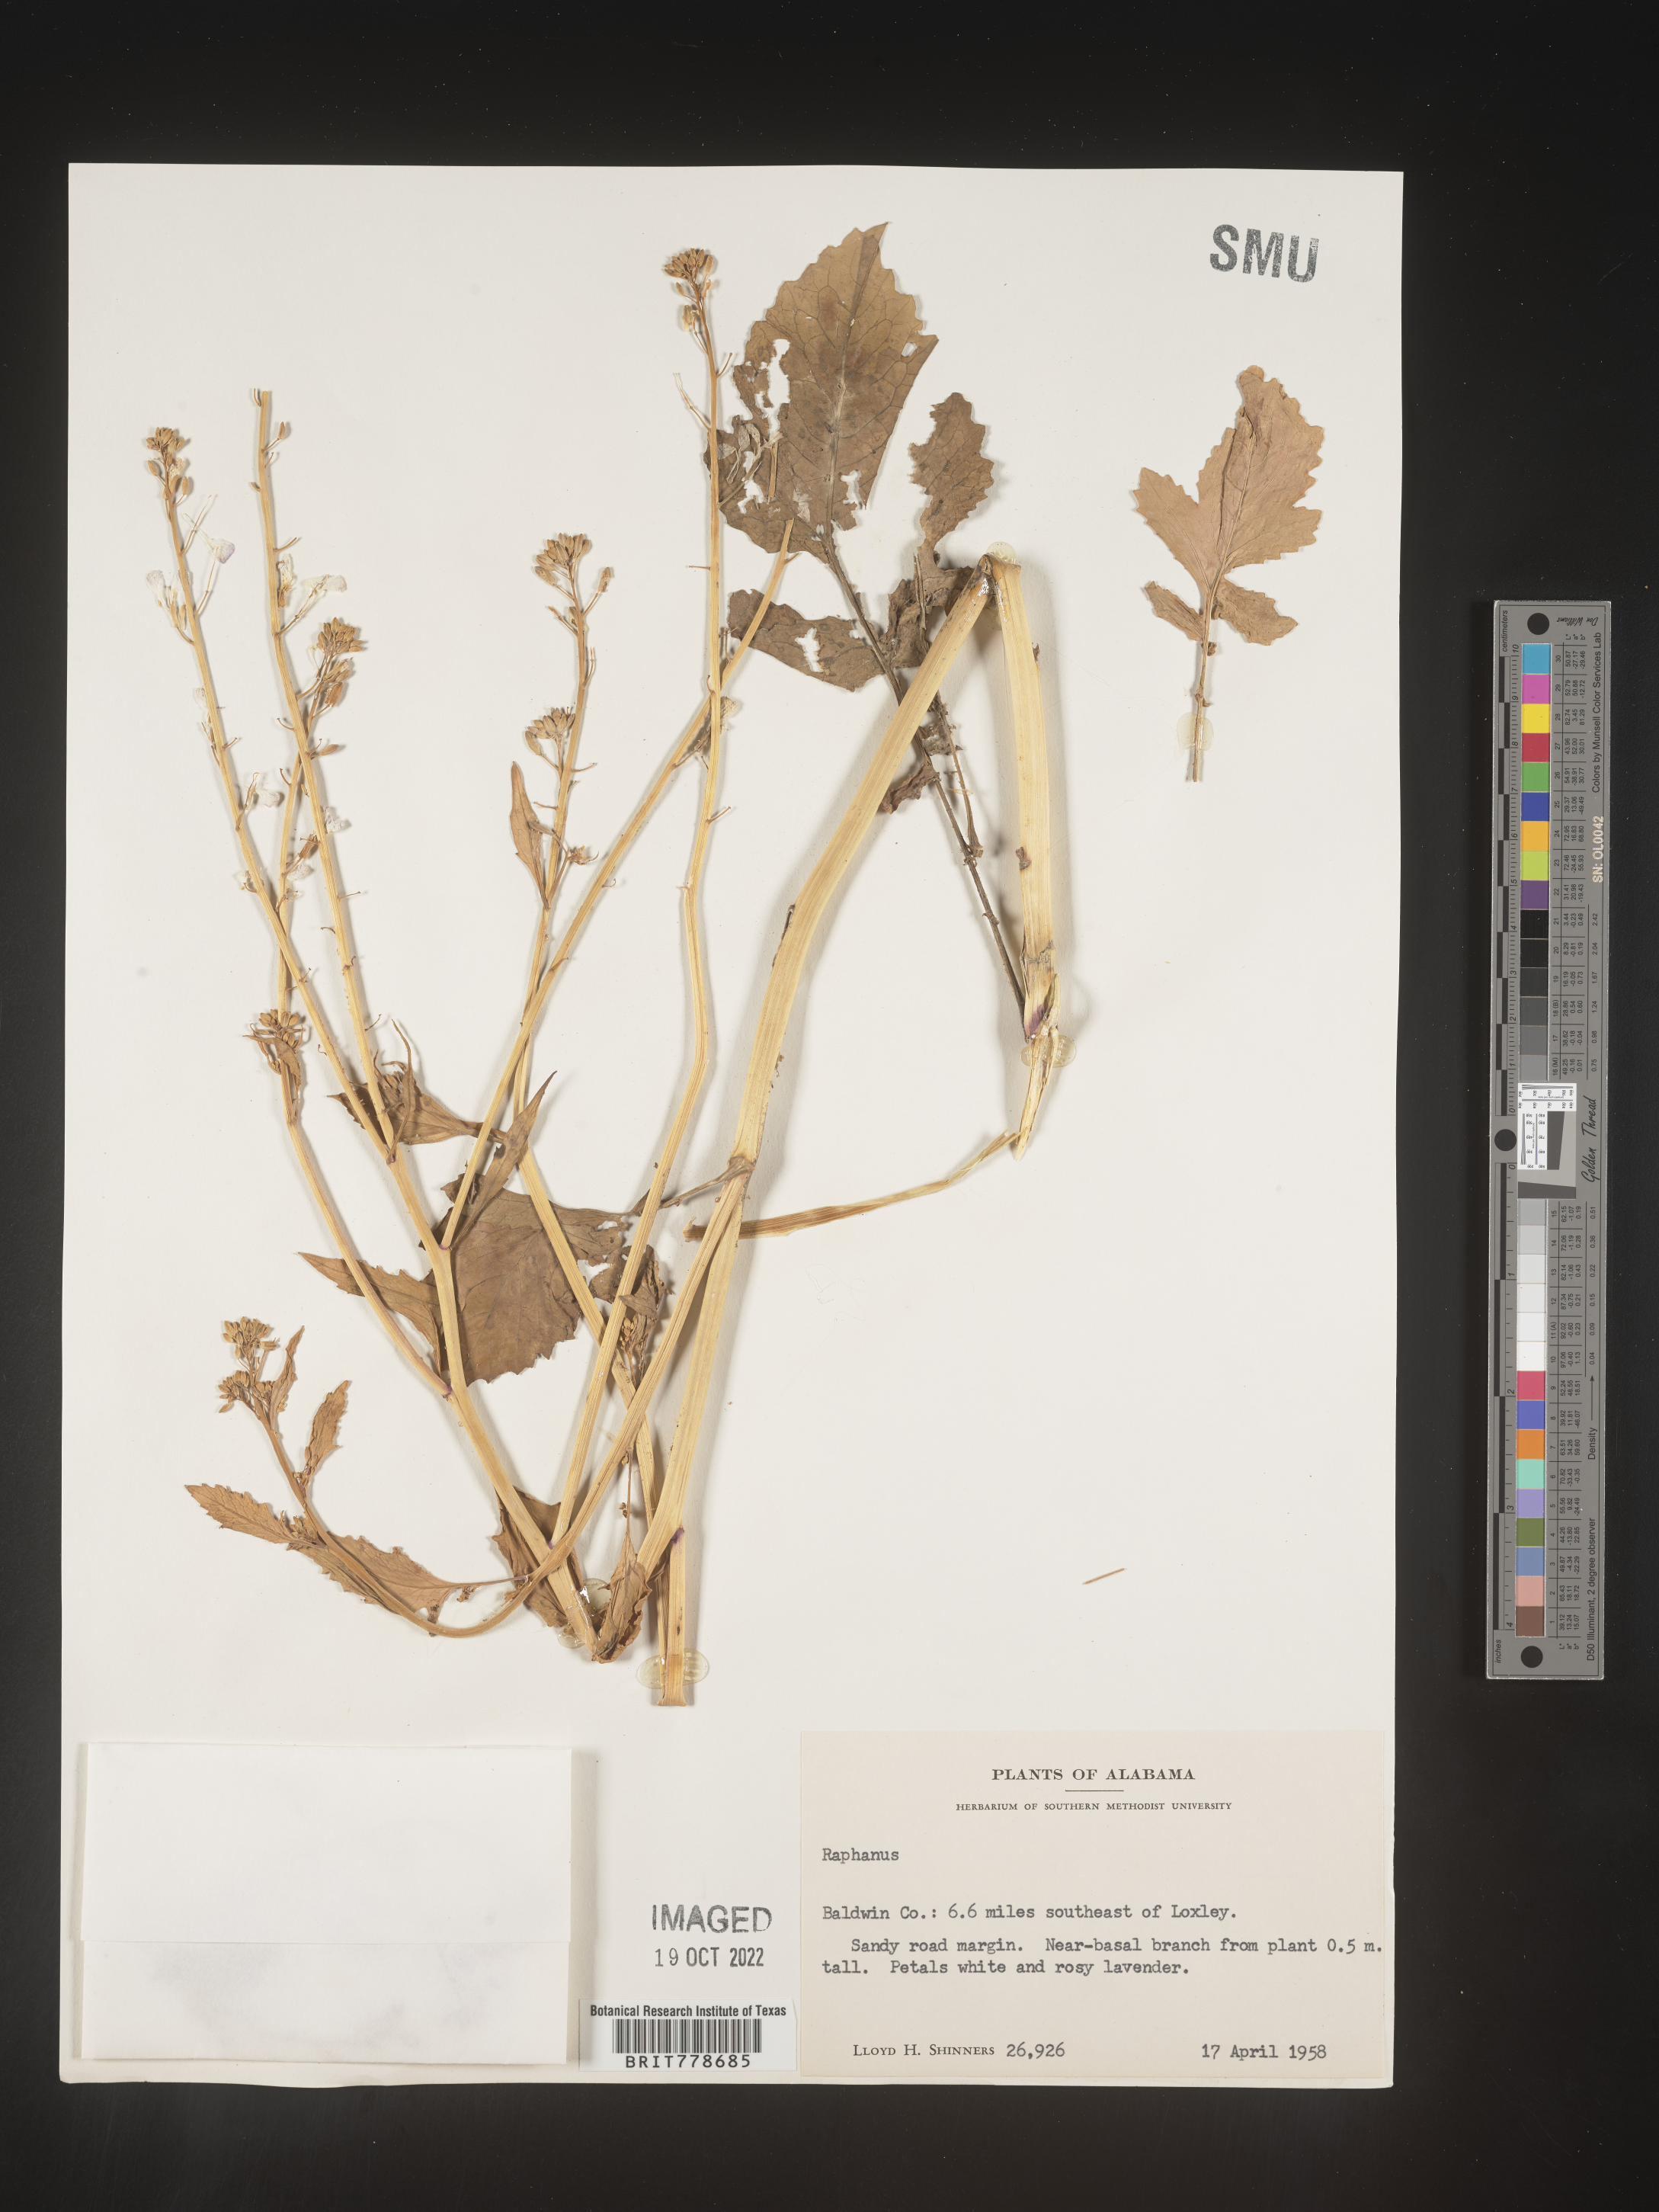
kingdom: Plantae
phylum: Tracheophyta
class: Magnoliopsida
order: Brassicales
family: Brassicaceae
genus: Raphanus
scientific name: Raphanus
